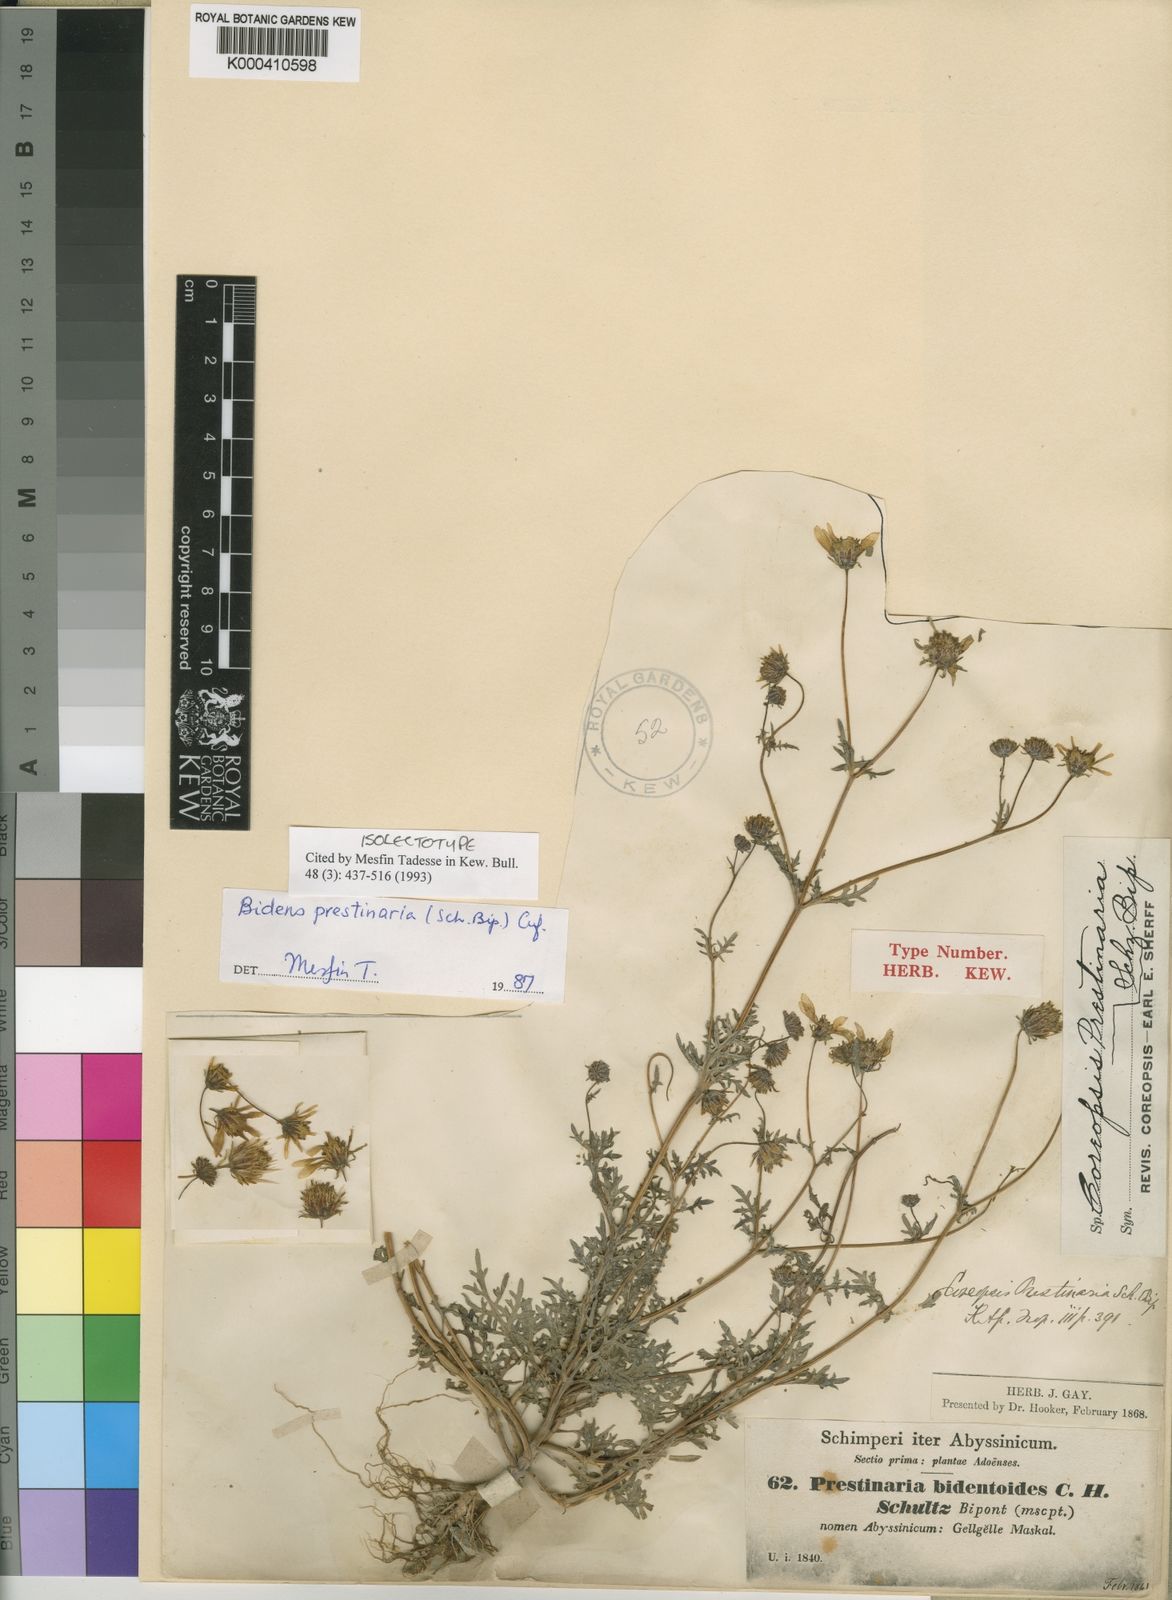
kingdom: Plantae
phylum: Tracheophyta
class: Magnoliopsida
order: Asterales
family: Asteraceae
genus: Bidens
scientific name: Bidens prestinaria
